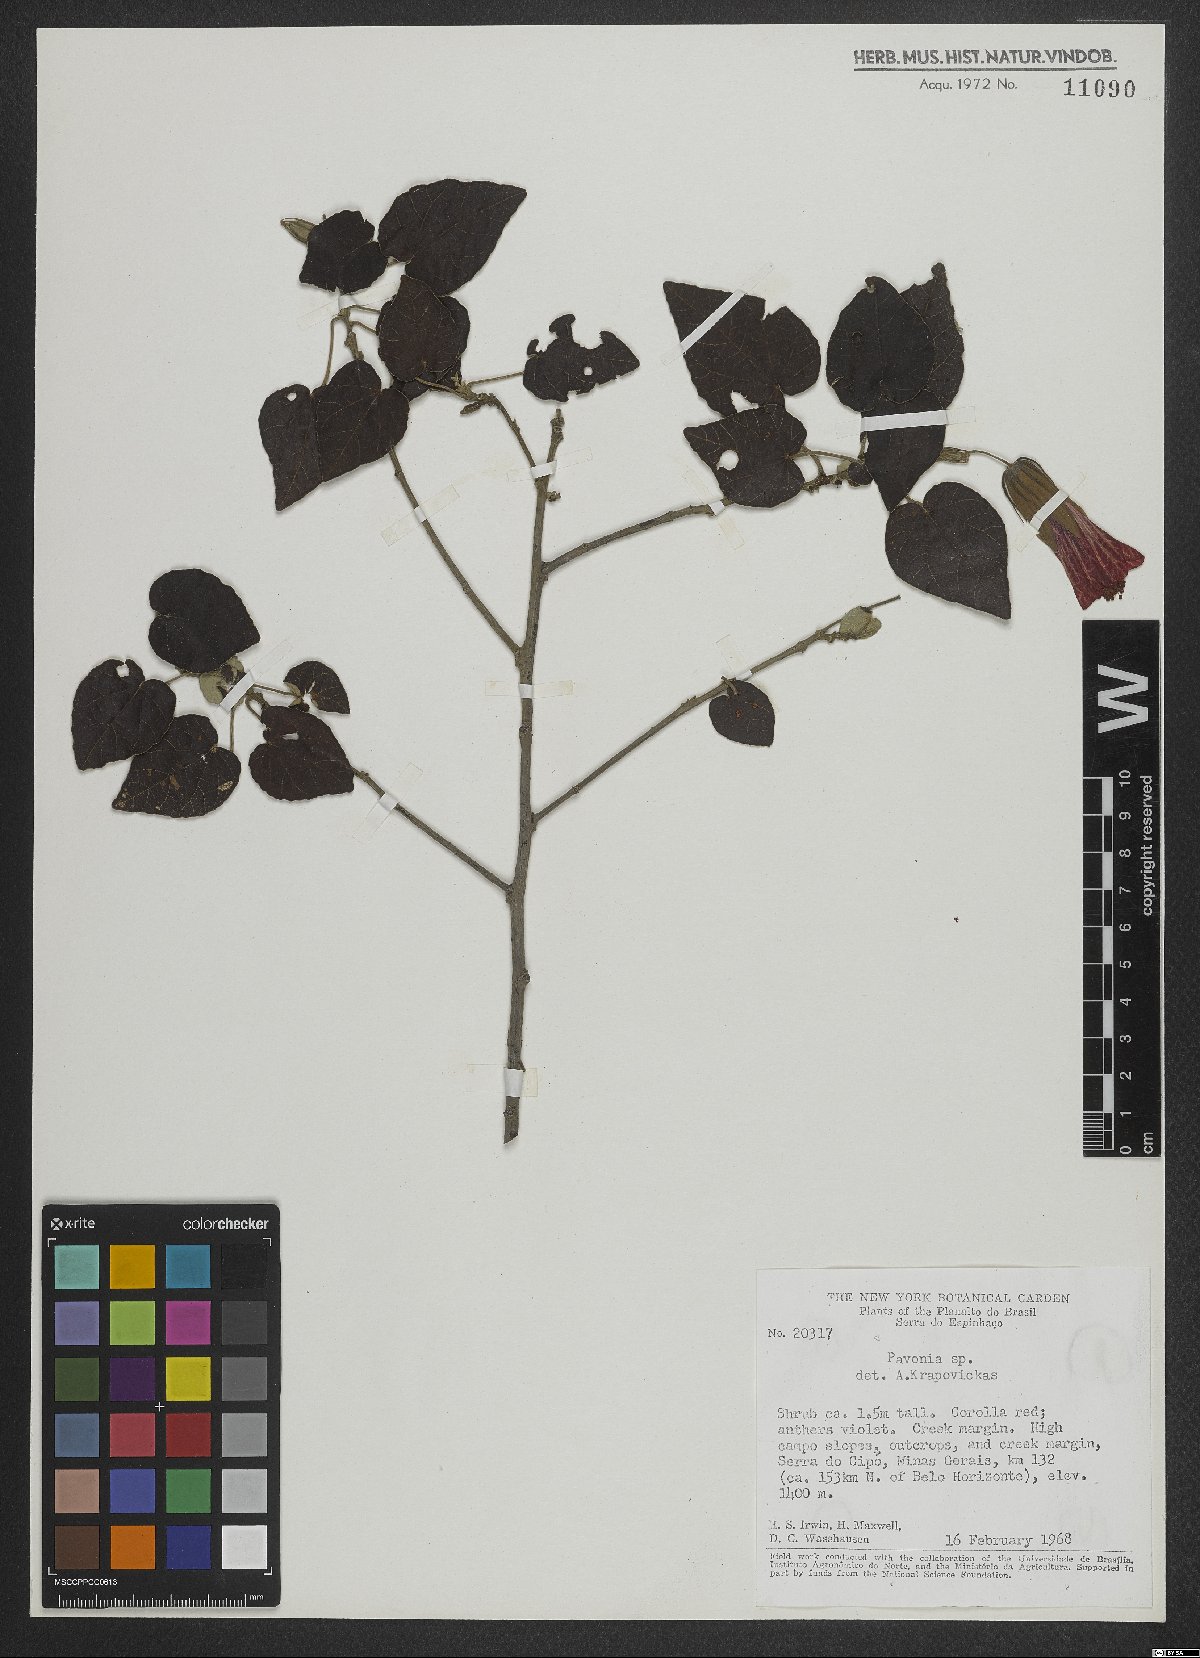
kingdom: Plantae
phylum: Tracheophyta
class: Magnoliopsida
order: Malvales
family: Malvaceae
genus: Pavonia
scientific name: Pavonia
